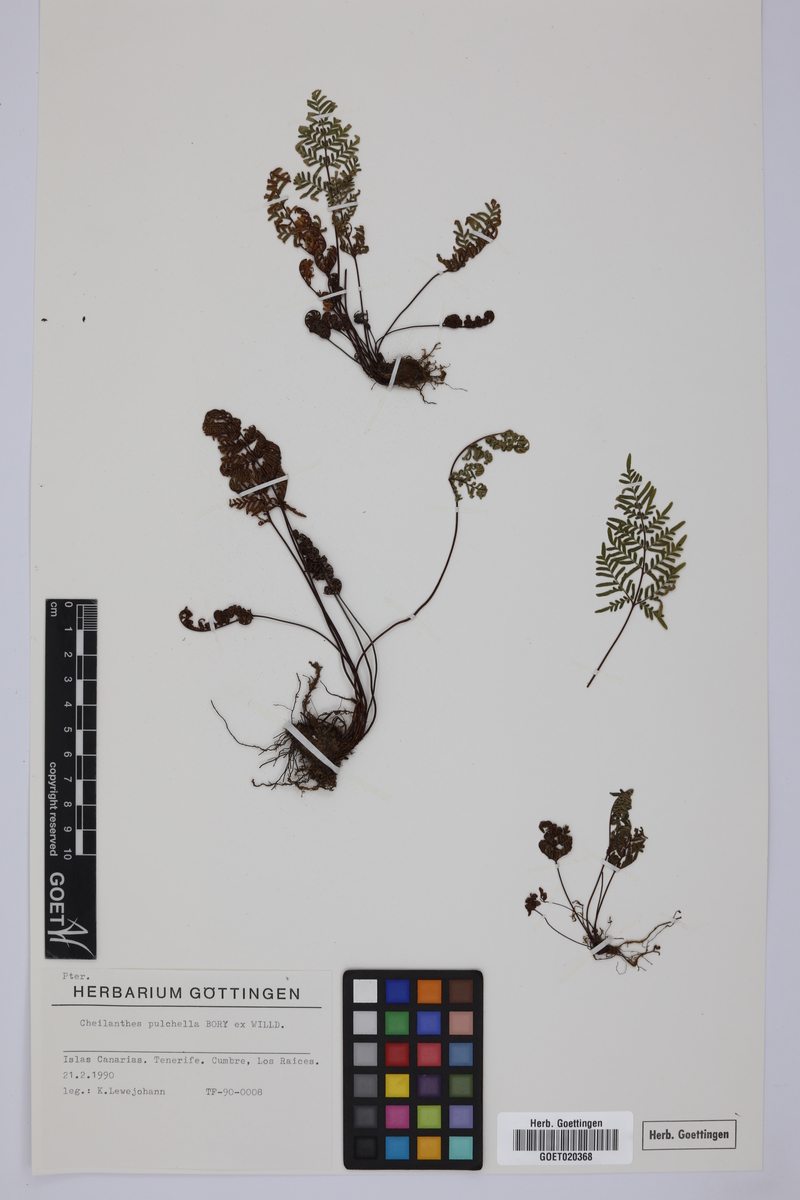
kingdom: Plantae
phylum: Tracheophyta
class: Polypodiopsida
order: Polypodiales
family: Pteridaceae
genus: Oeosporangium
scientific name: Oeosporangium pulchellum
